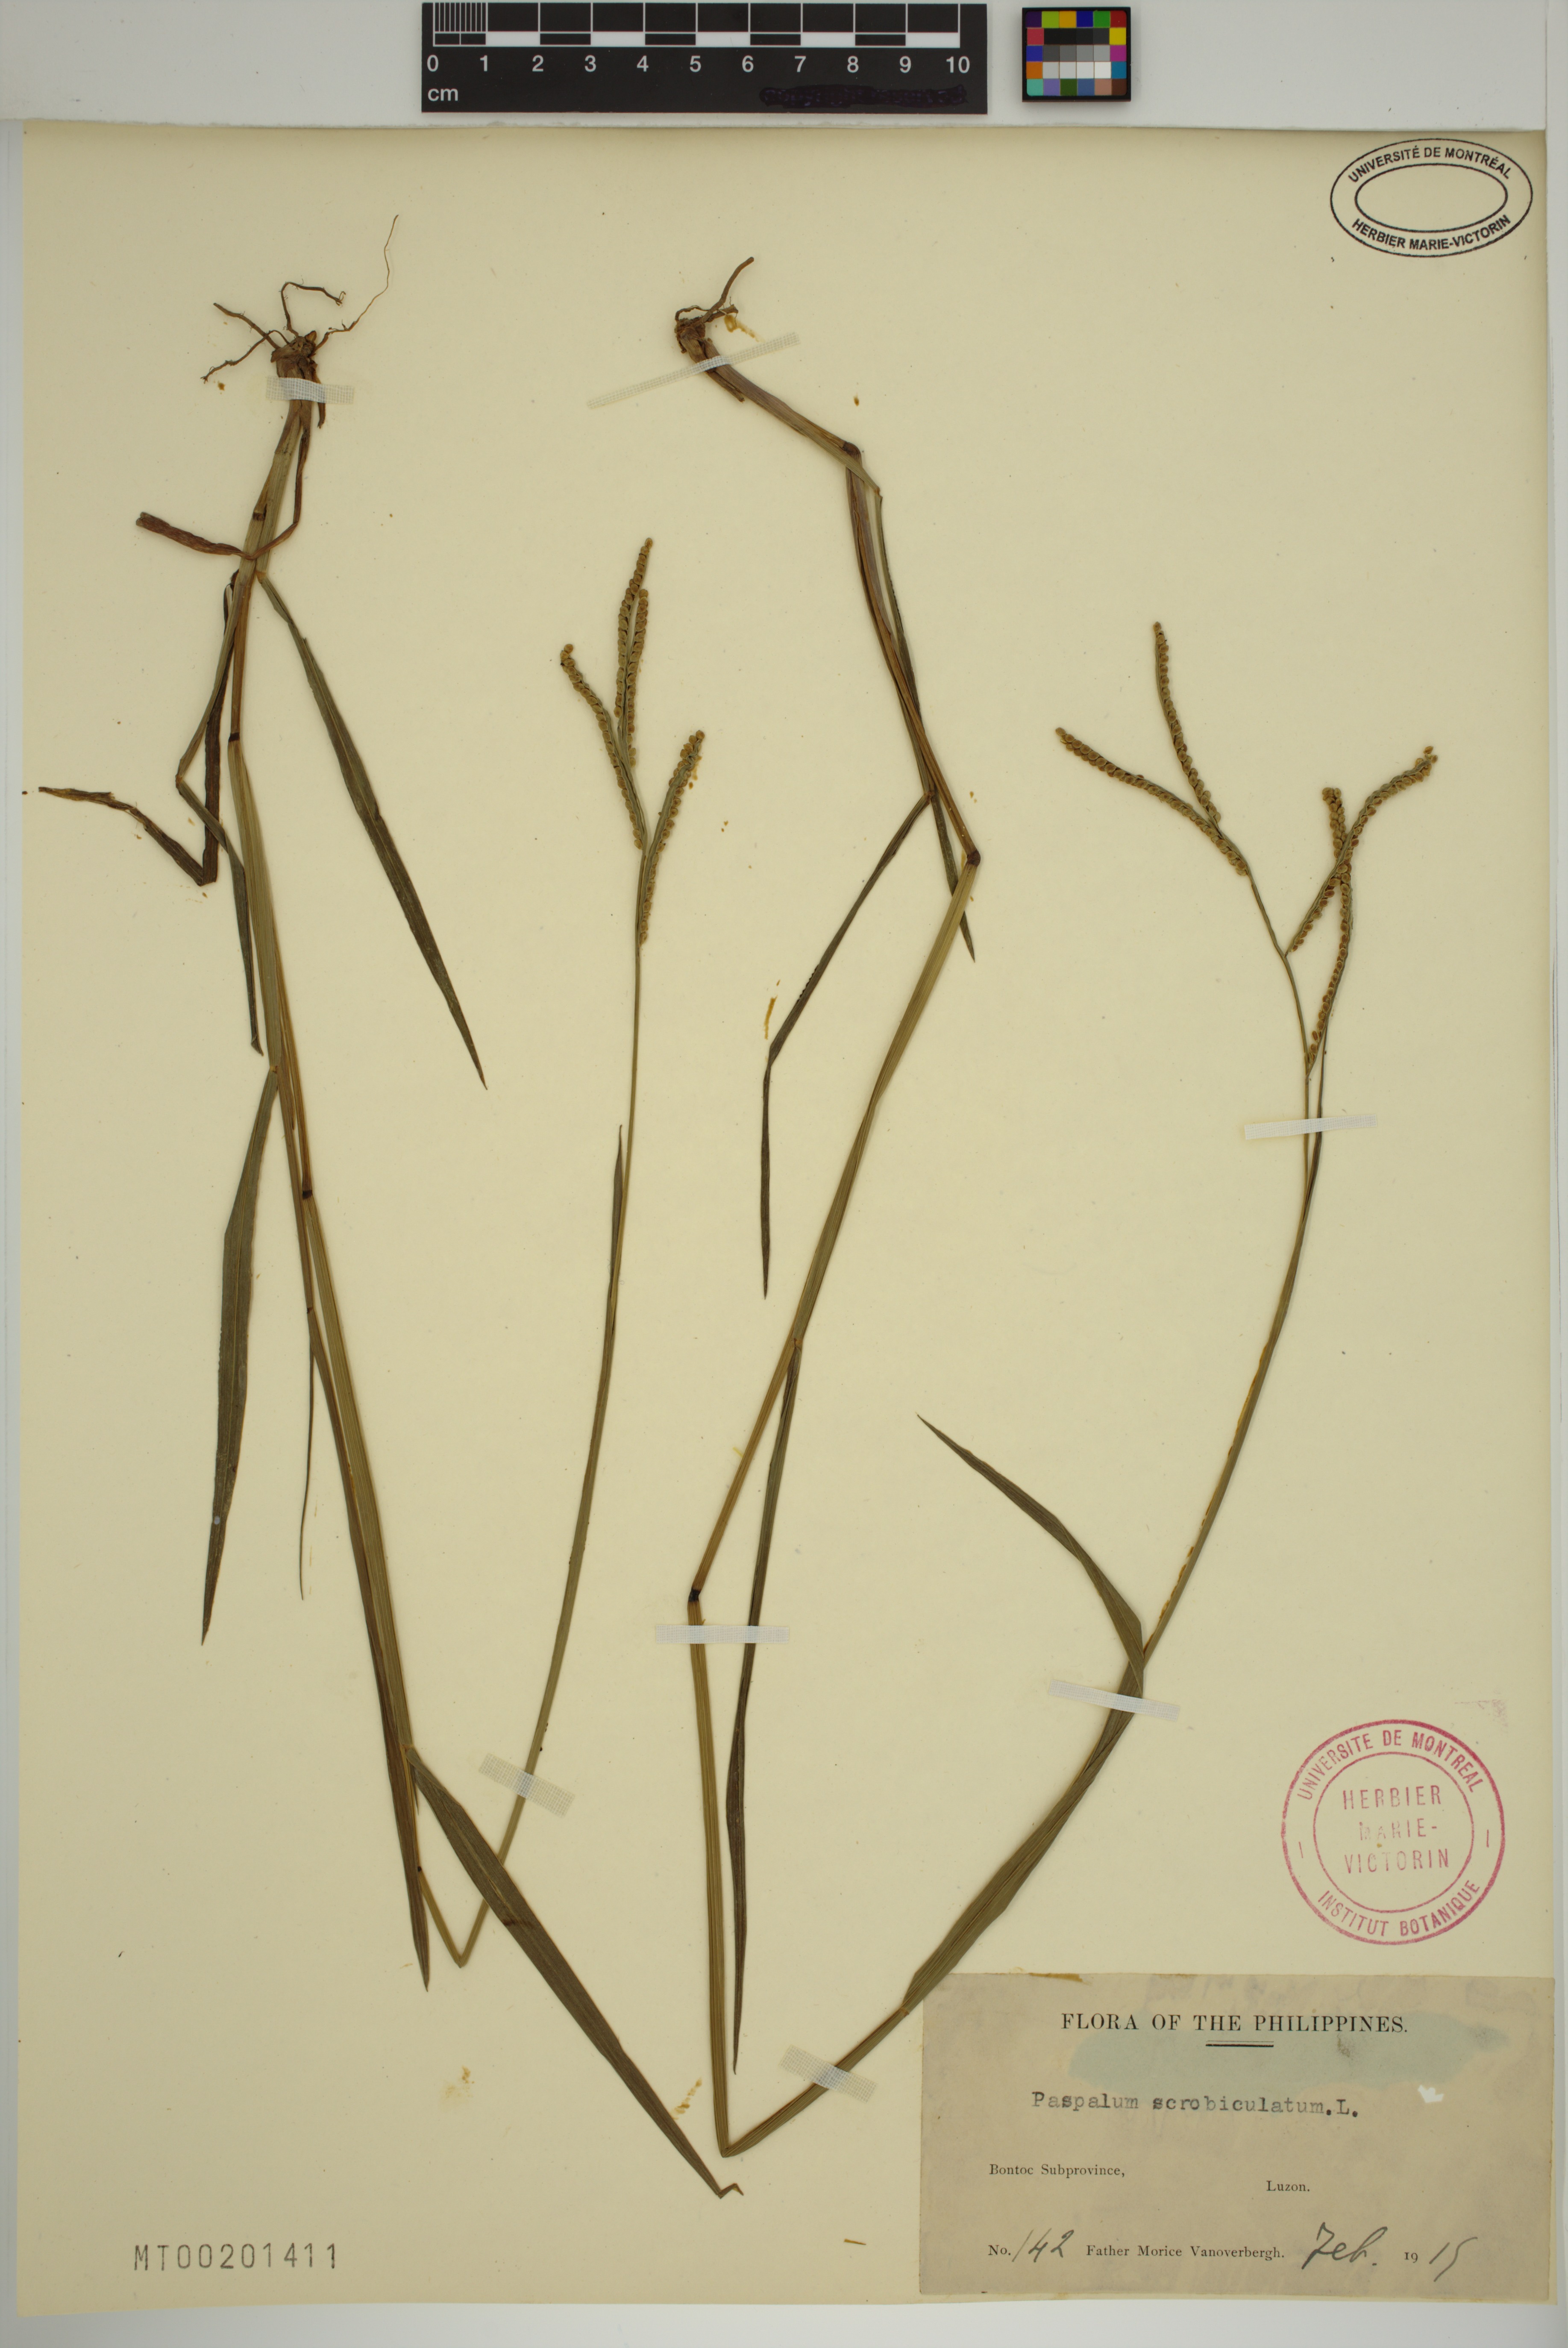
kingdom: Plantae
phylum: Tracheophyta
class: Liliopsida
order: Poales
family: Poaceae
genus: Paspalum
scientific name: Paspalum scrobiculatum
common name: Kodo millet
